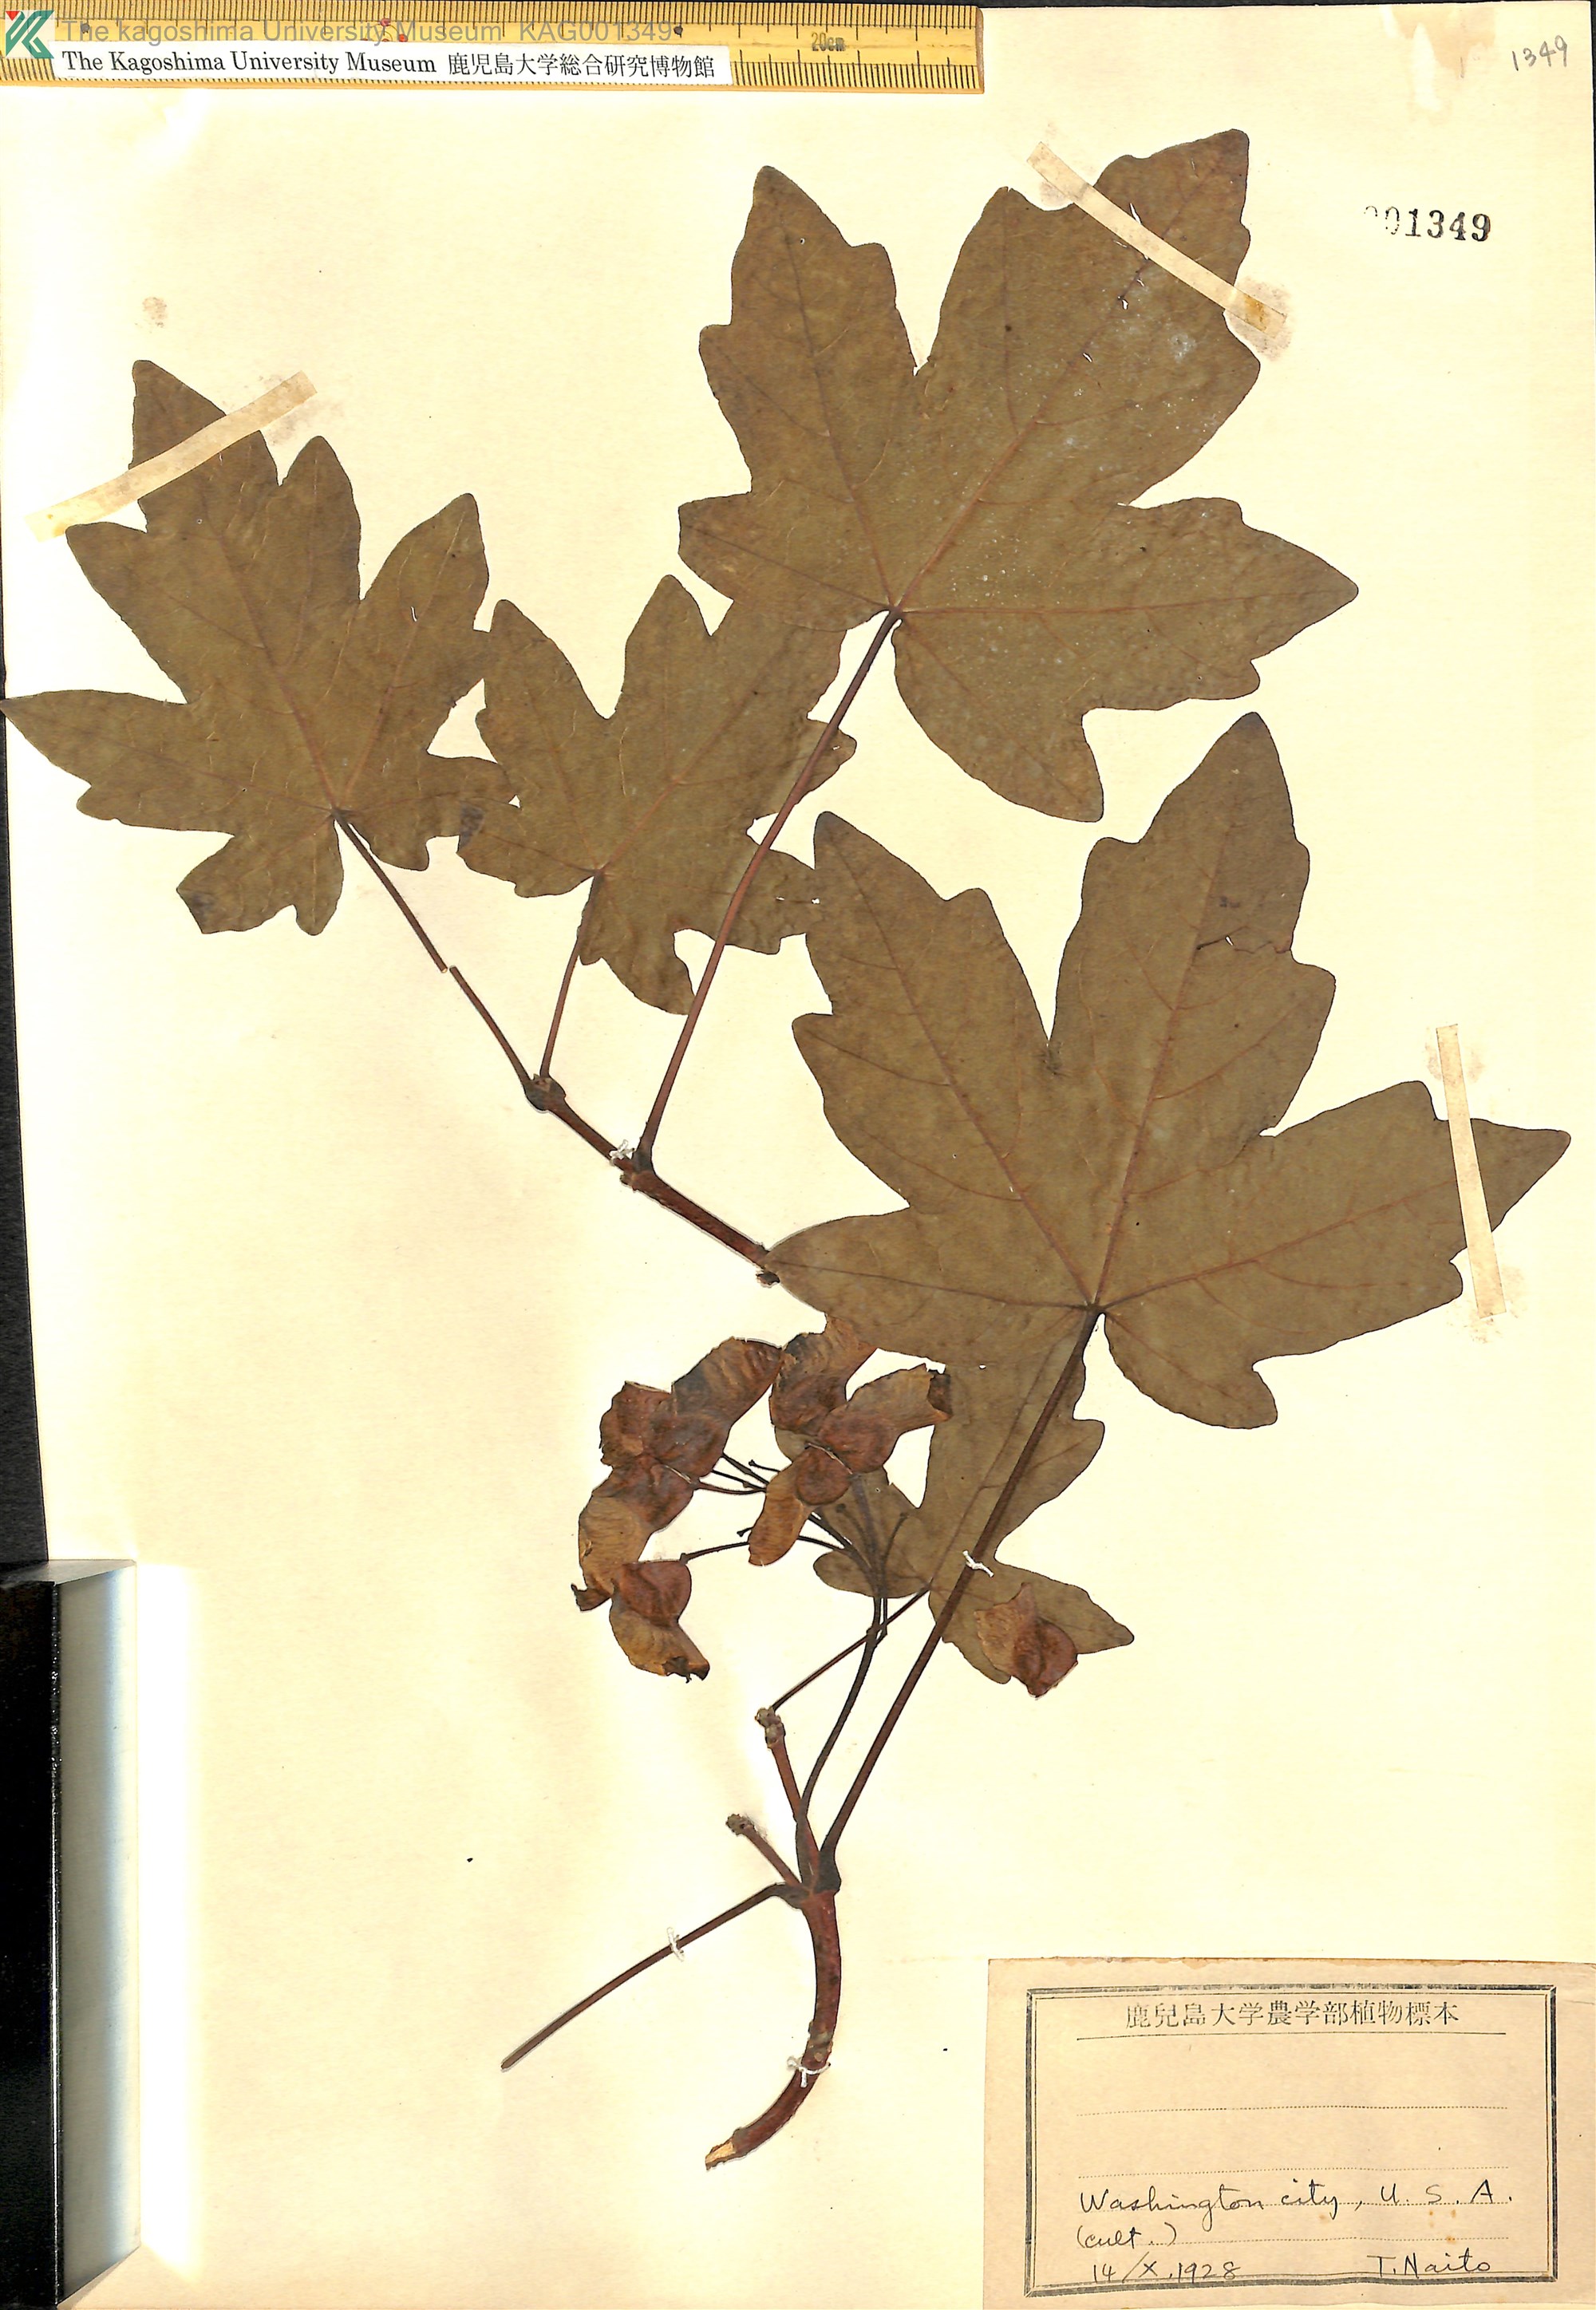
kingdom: Plantae
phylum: Tracheophyta
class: Magnoliopsida
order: Sapindales
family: Sapindaceae
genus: Acer
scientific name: Acer
